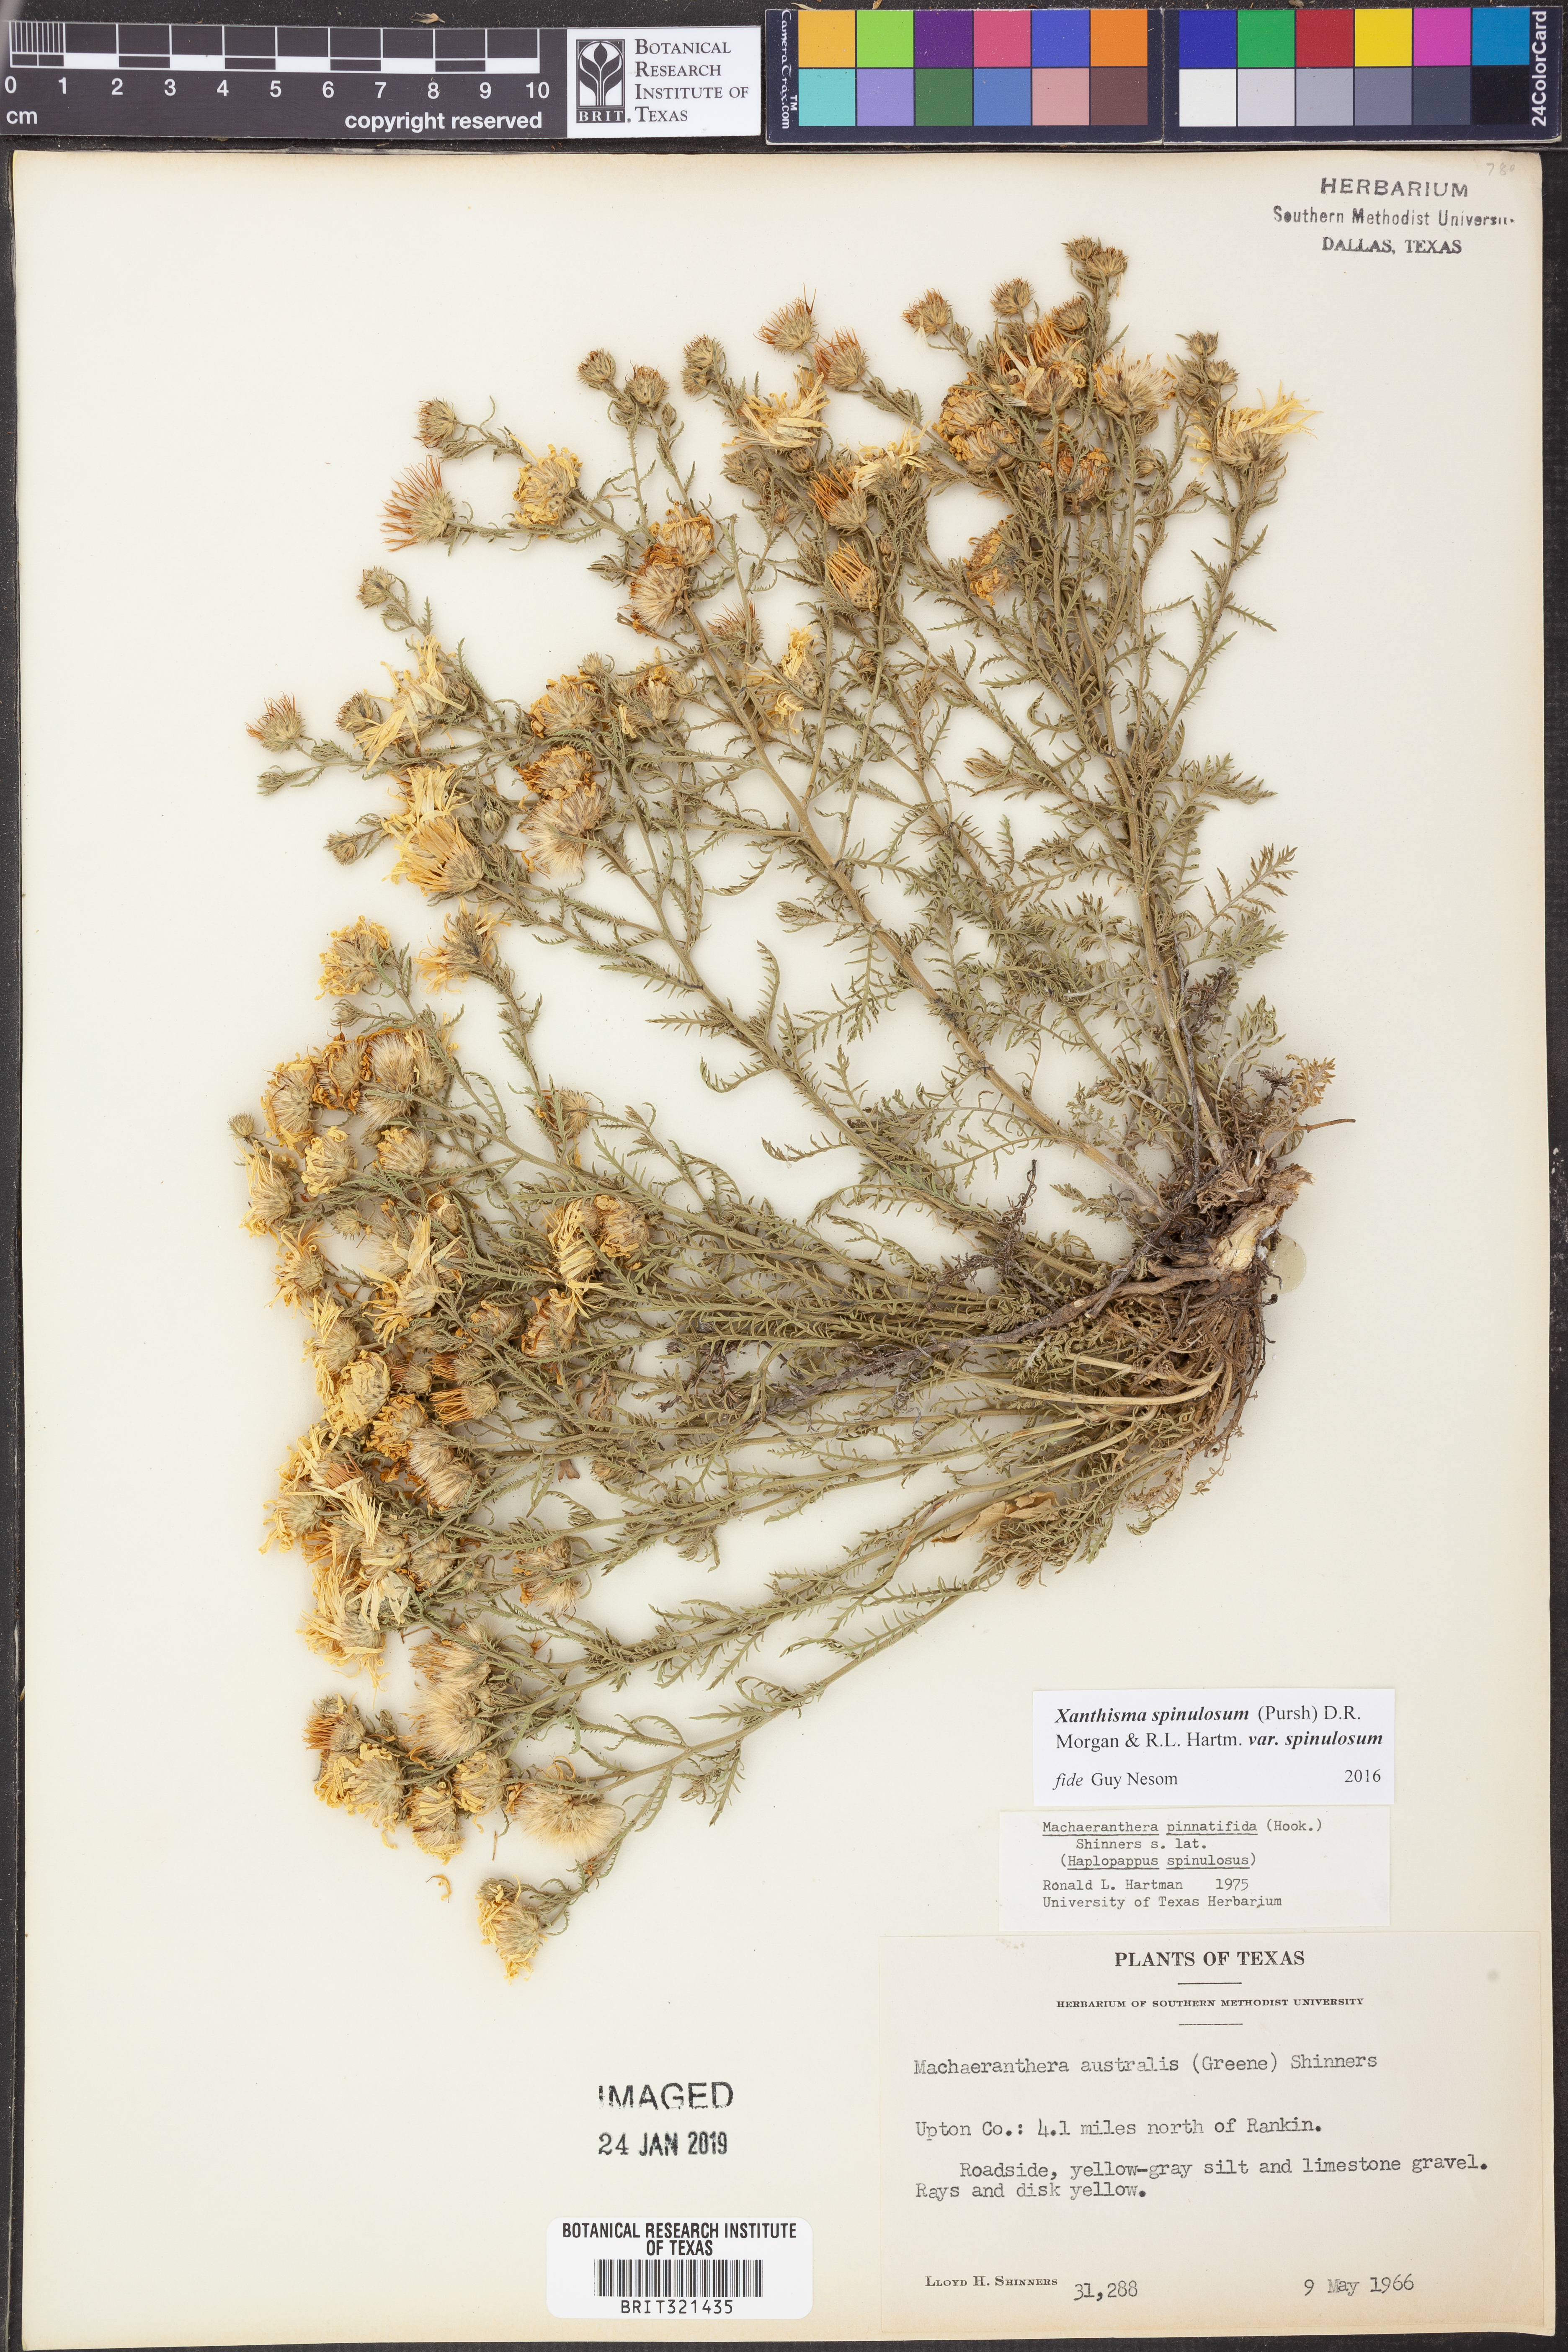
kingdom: Plantae
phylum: Tracheophyta
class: Magnoliopsida
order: Asterales
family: Asteraceae
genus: Xanthisma
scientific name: Xanthisma spinulosum
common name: Spiny goldenweed
